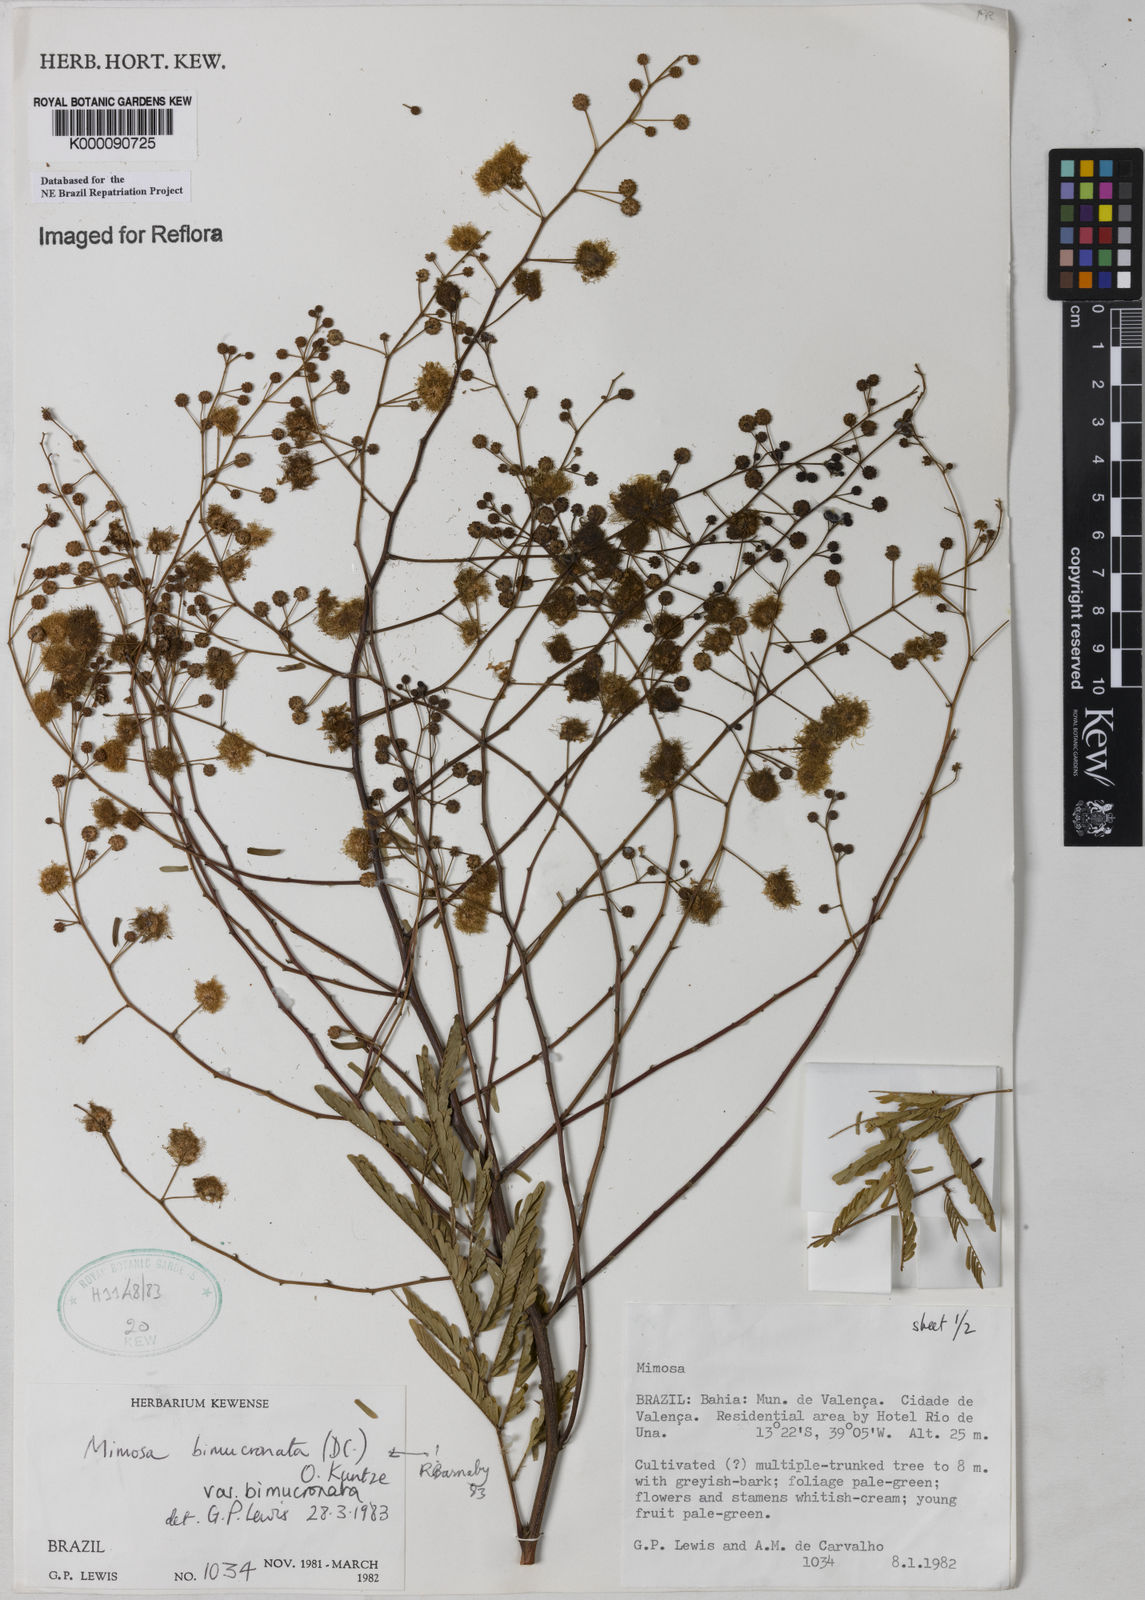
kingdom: Plantae
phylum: Tracheophyta
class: Magnoliopsida
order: Fabales
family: Fabaceae
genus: Mimosa
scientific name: Mimosa bimucronata
